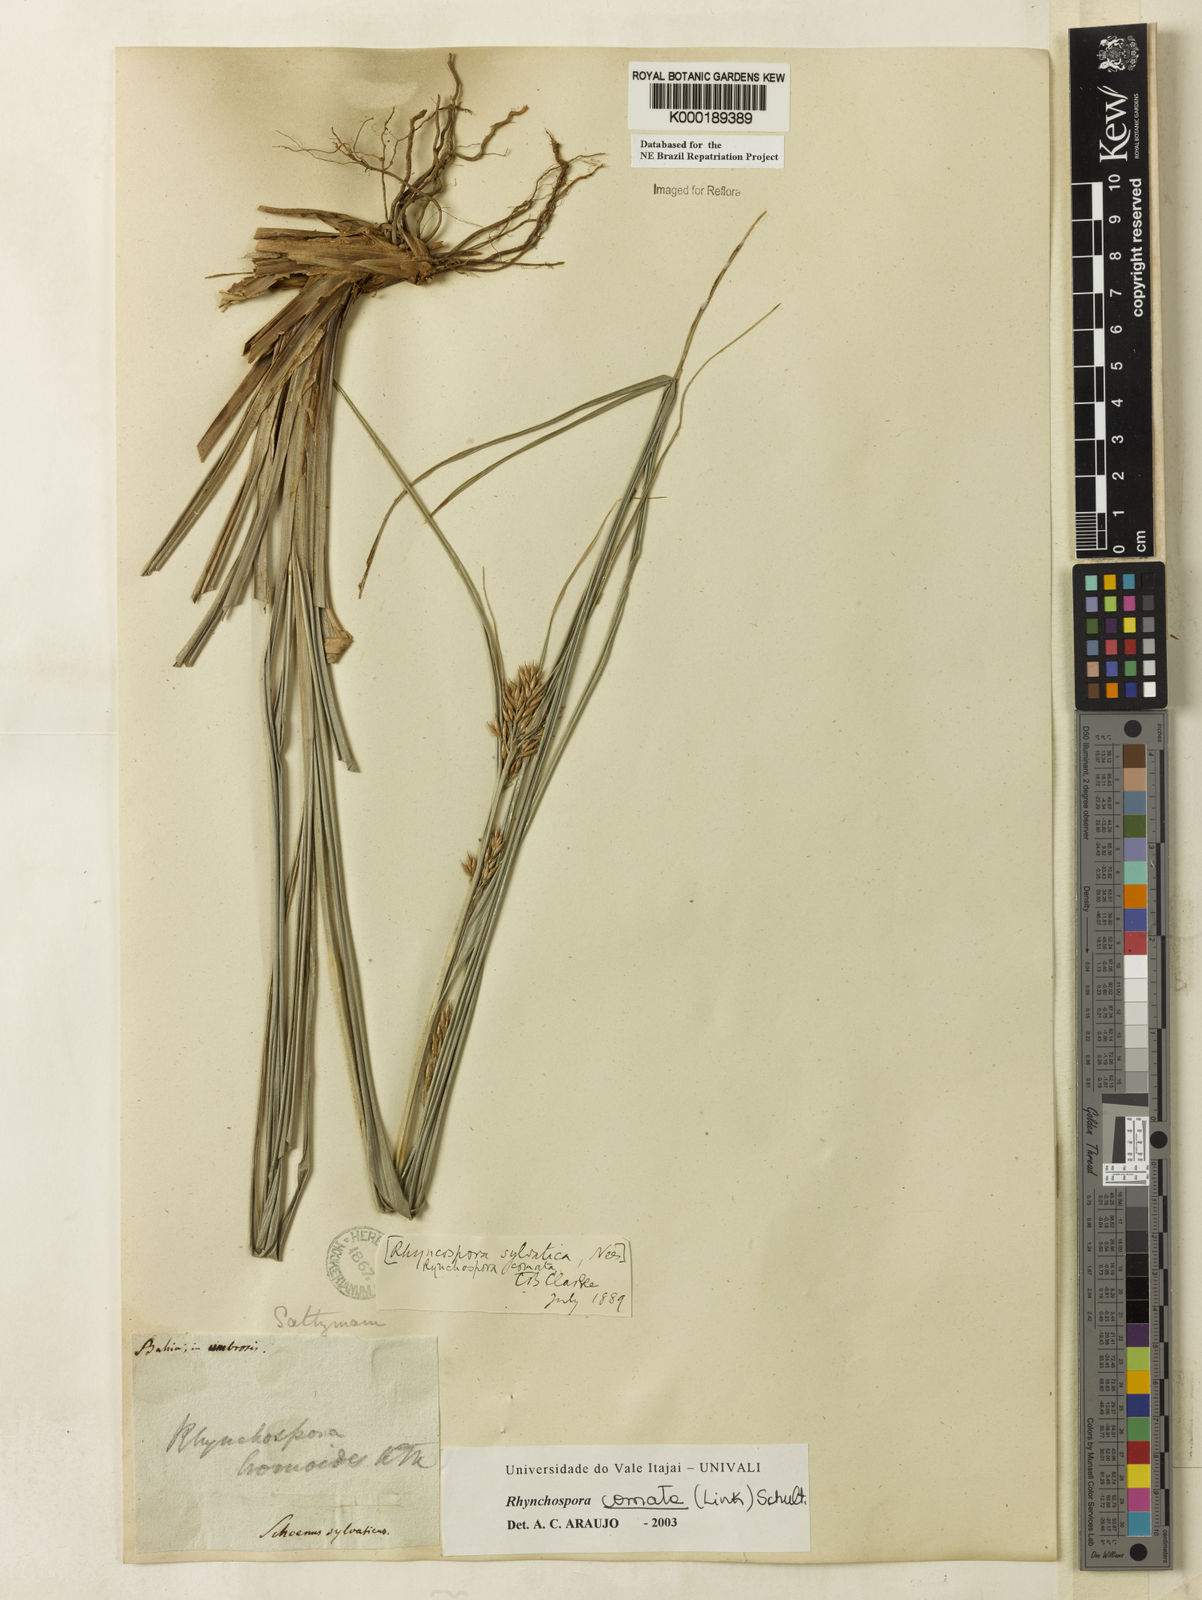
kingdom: Plantae
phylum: Tracheophyta
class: Liliopsida
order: Poales
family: Cyperaceae
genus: Rhynchospora
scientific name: Rhynchospora comata
